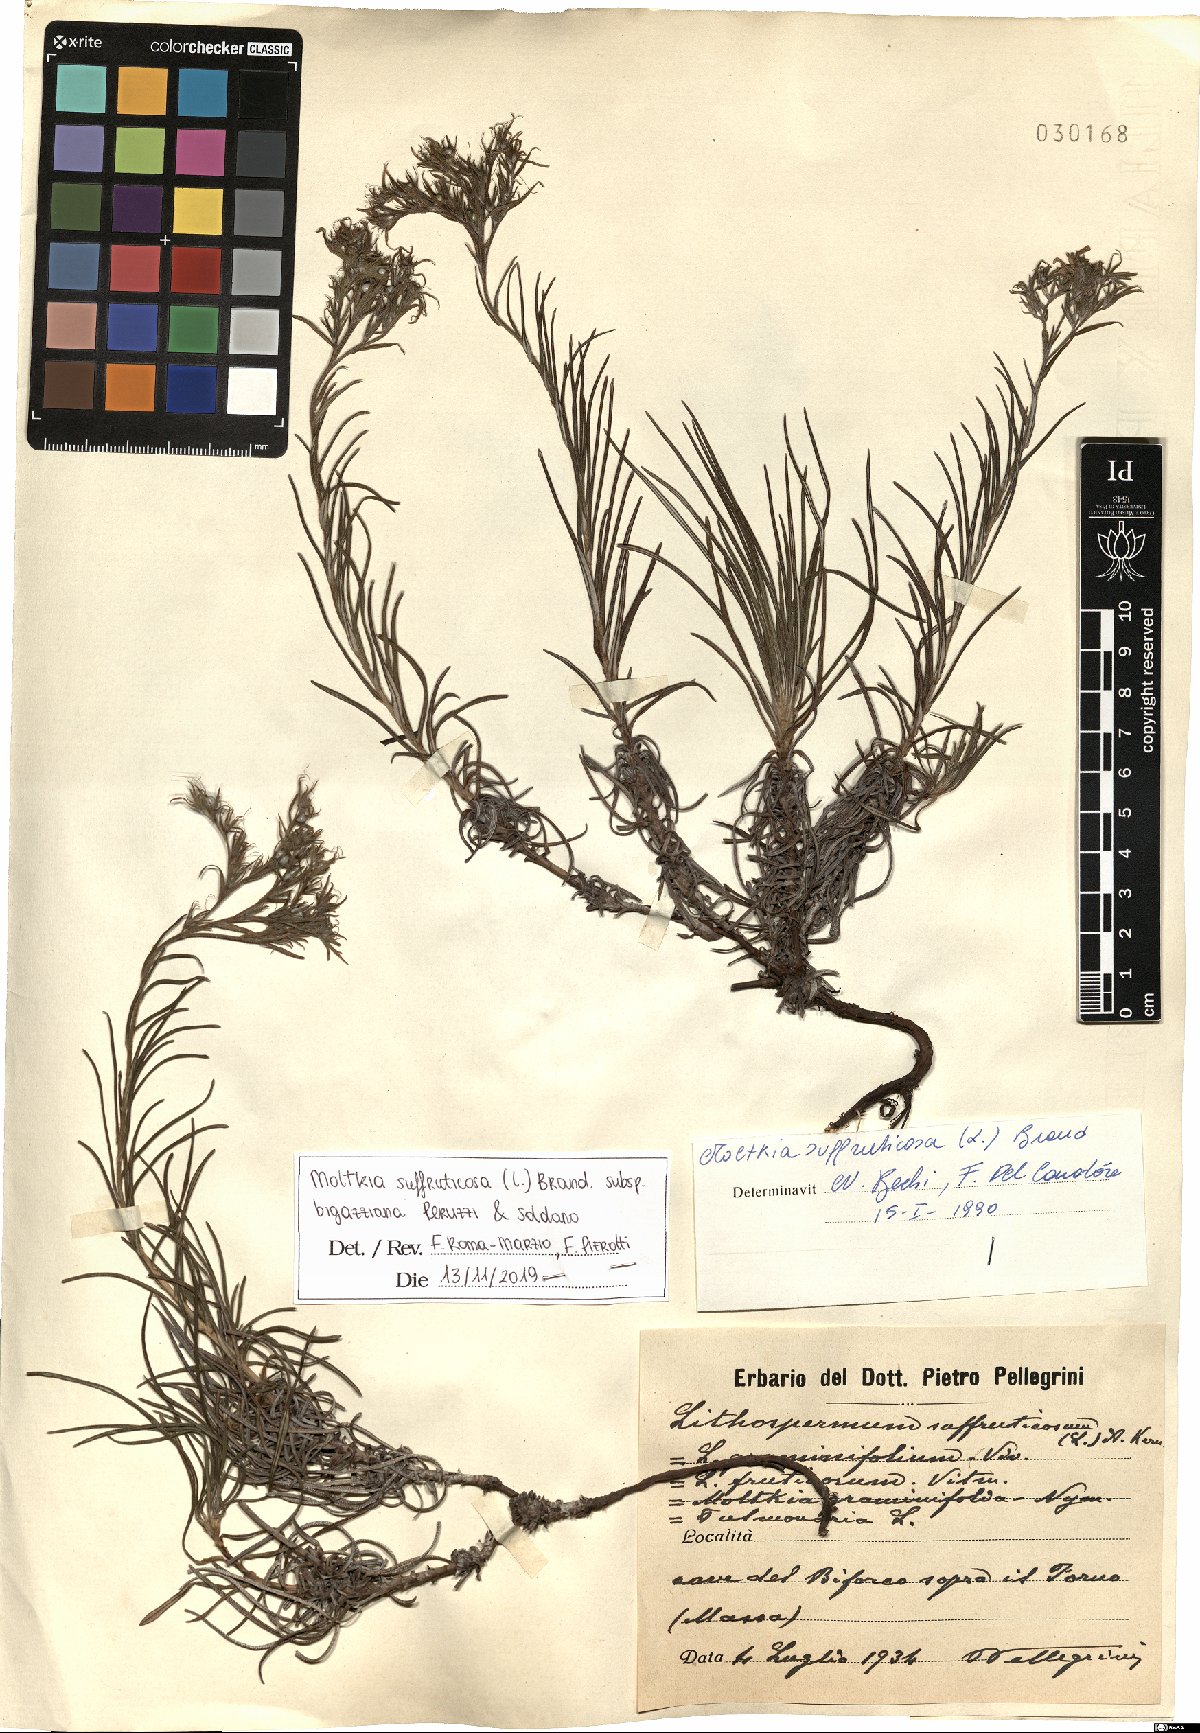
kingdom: Plantae
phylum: Tracheophyta
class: Magnoliopsida
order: Boraginales
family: Boraginaceae
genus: Moltkia
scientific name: Moltkia suffruticosa
